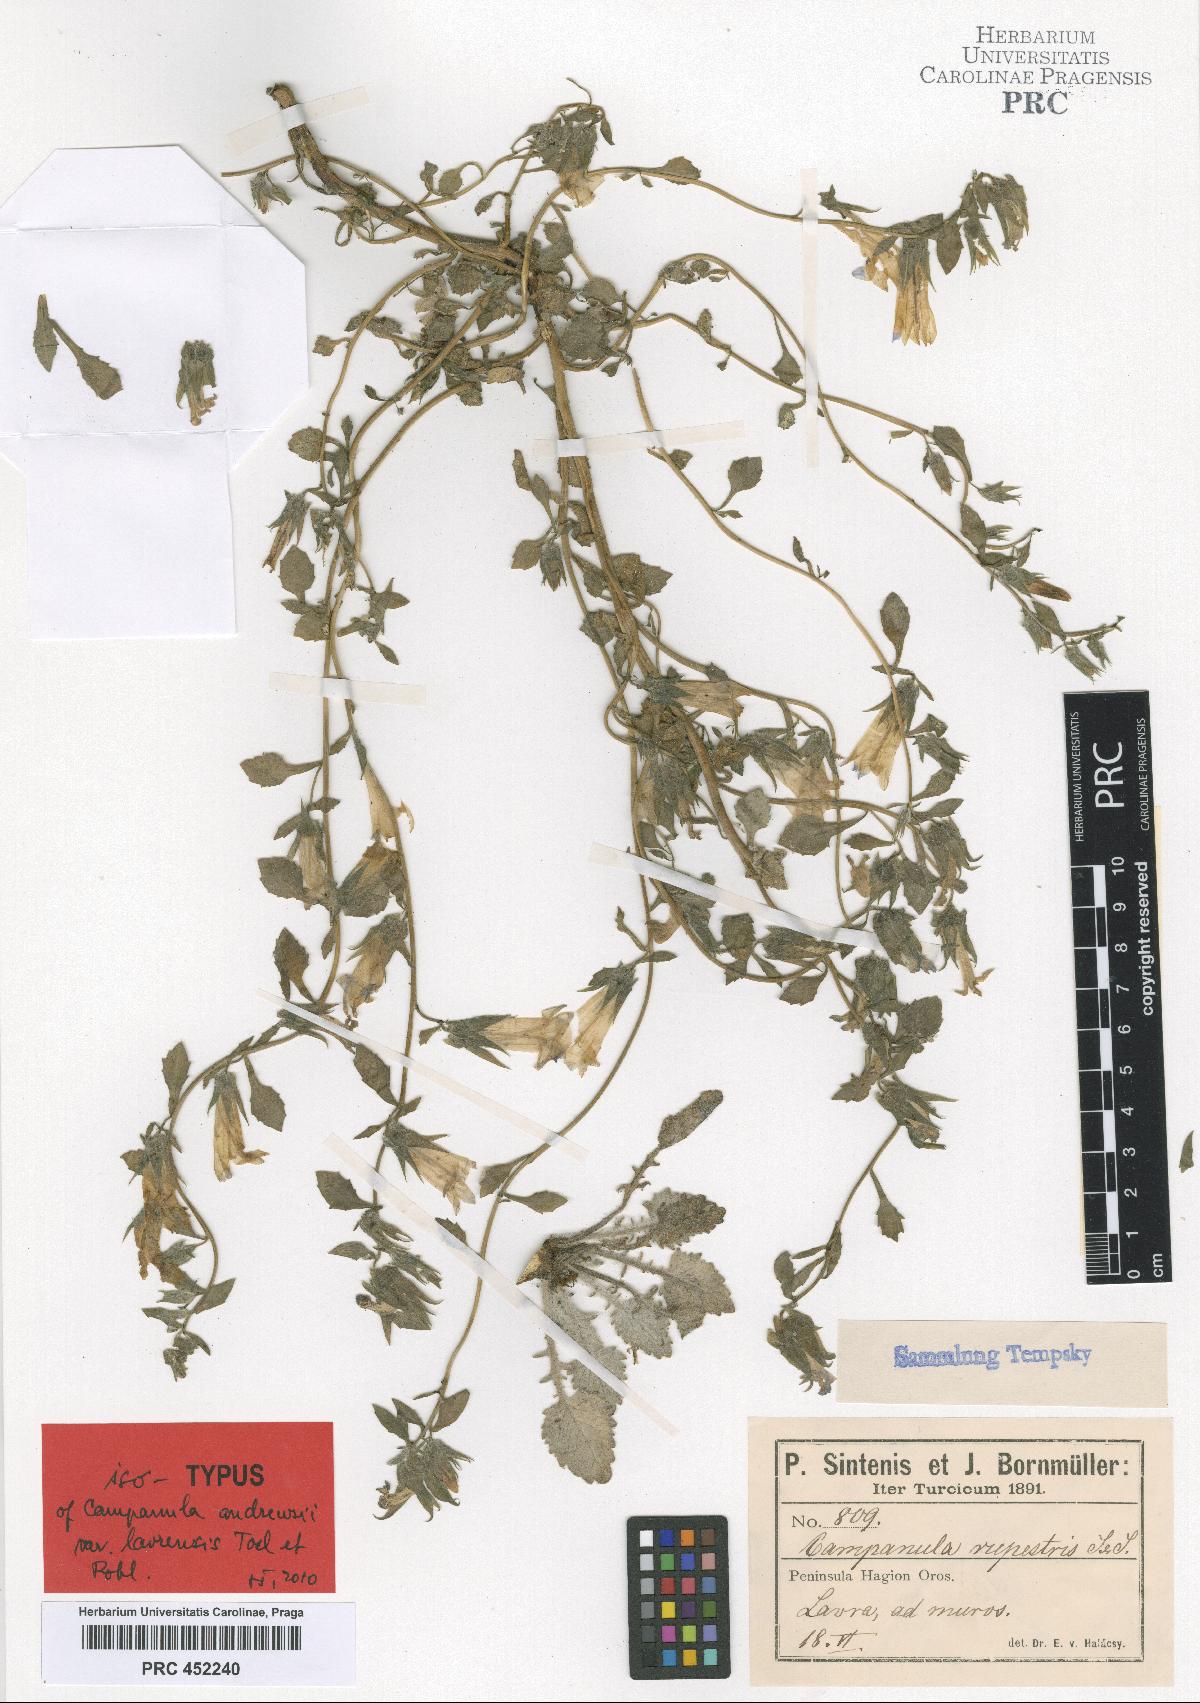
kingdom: Plantae
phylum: Tracheophyta
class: Magnoliopsida
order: Asterales
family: Campanulaceae
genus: Campanula
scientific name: Campanula rupestris
